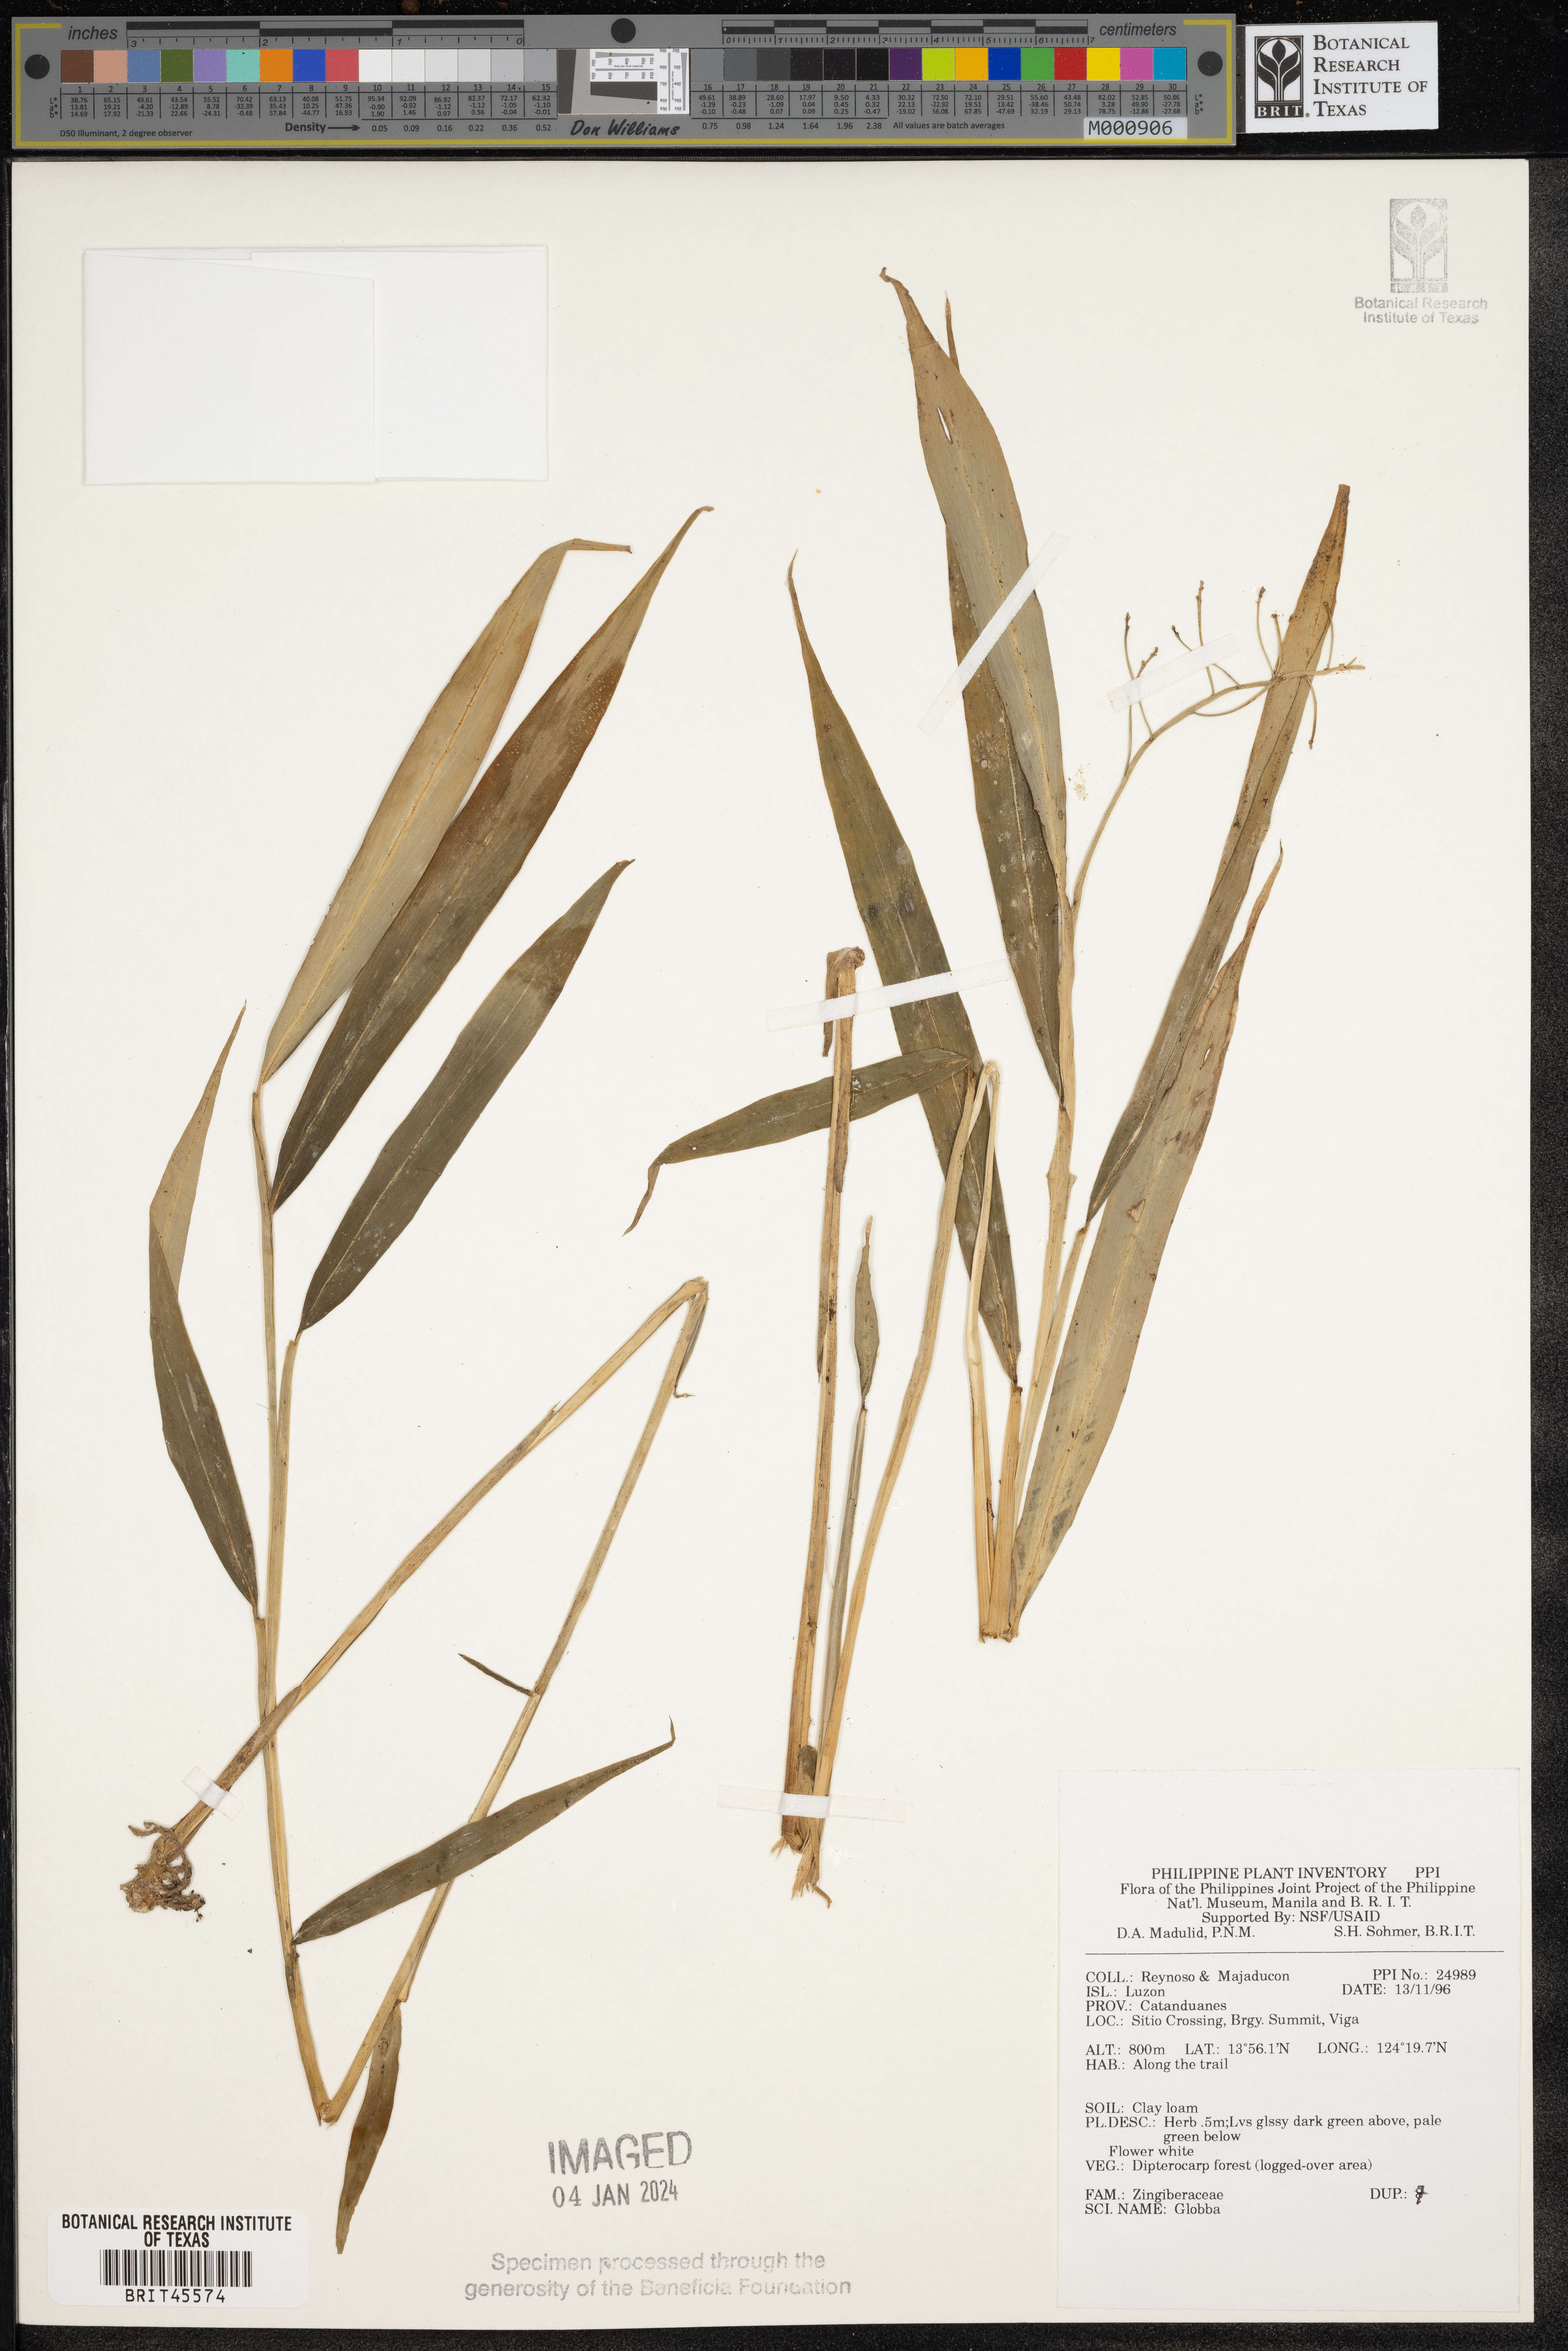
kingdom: Plantae
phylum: Tracheophyta
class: Liliopsida
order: Zingiberales
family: Zingiberaceae
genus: Globba
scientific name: Globba
